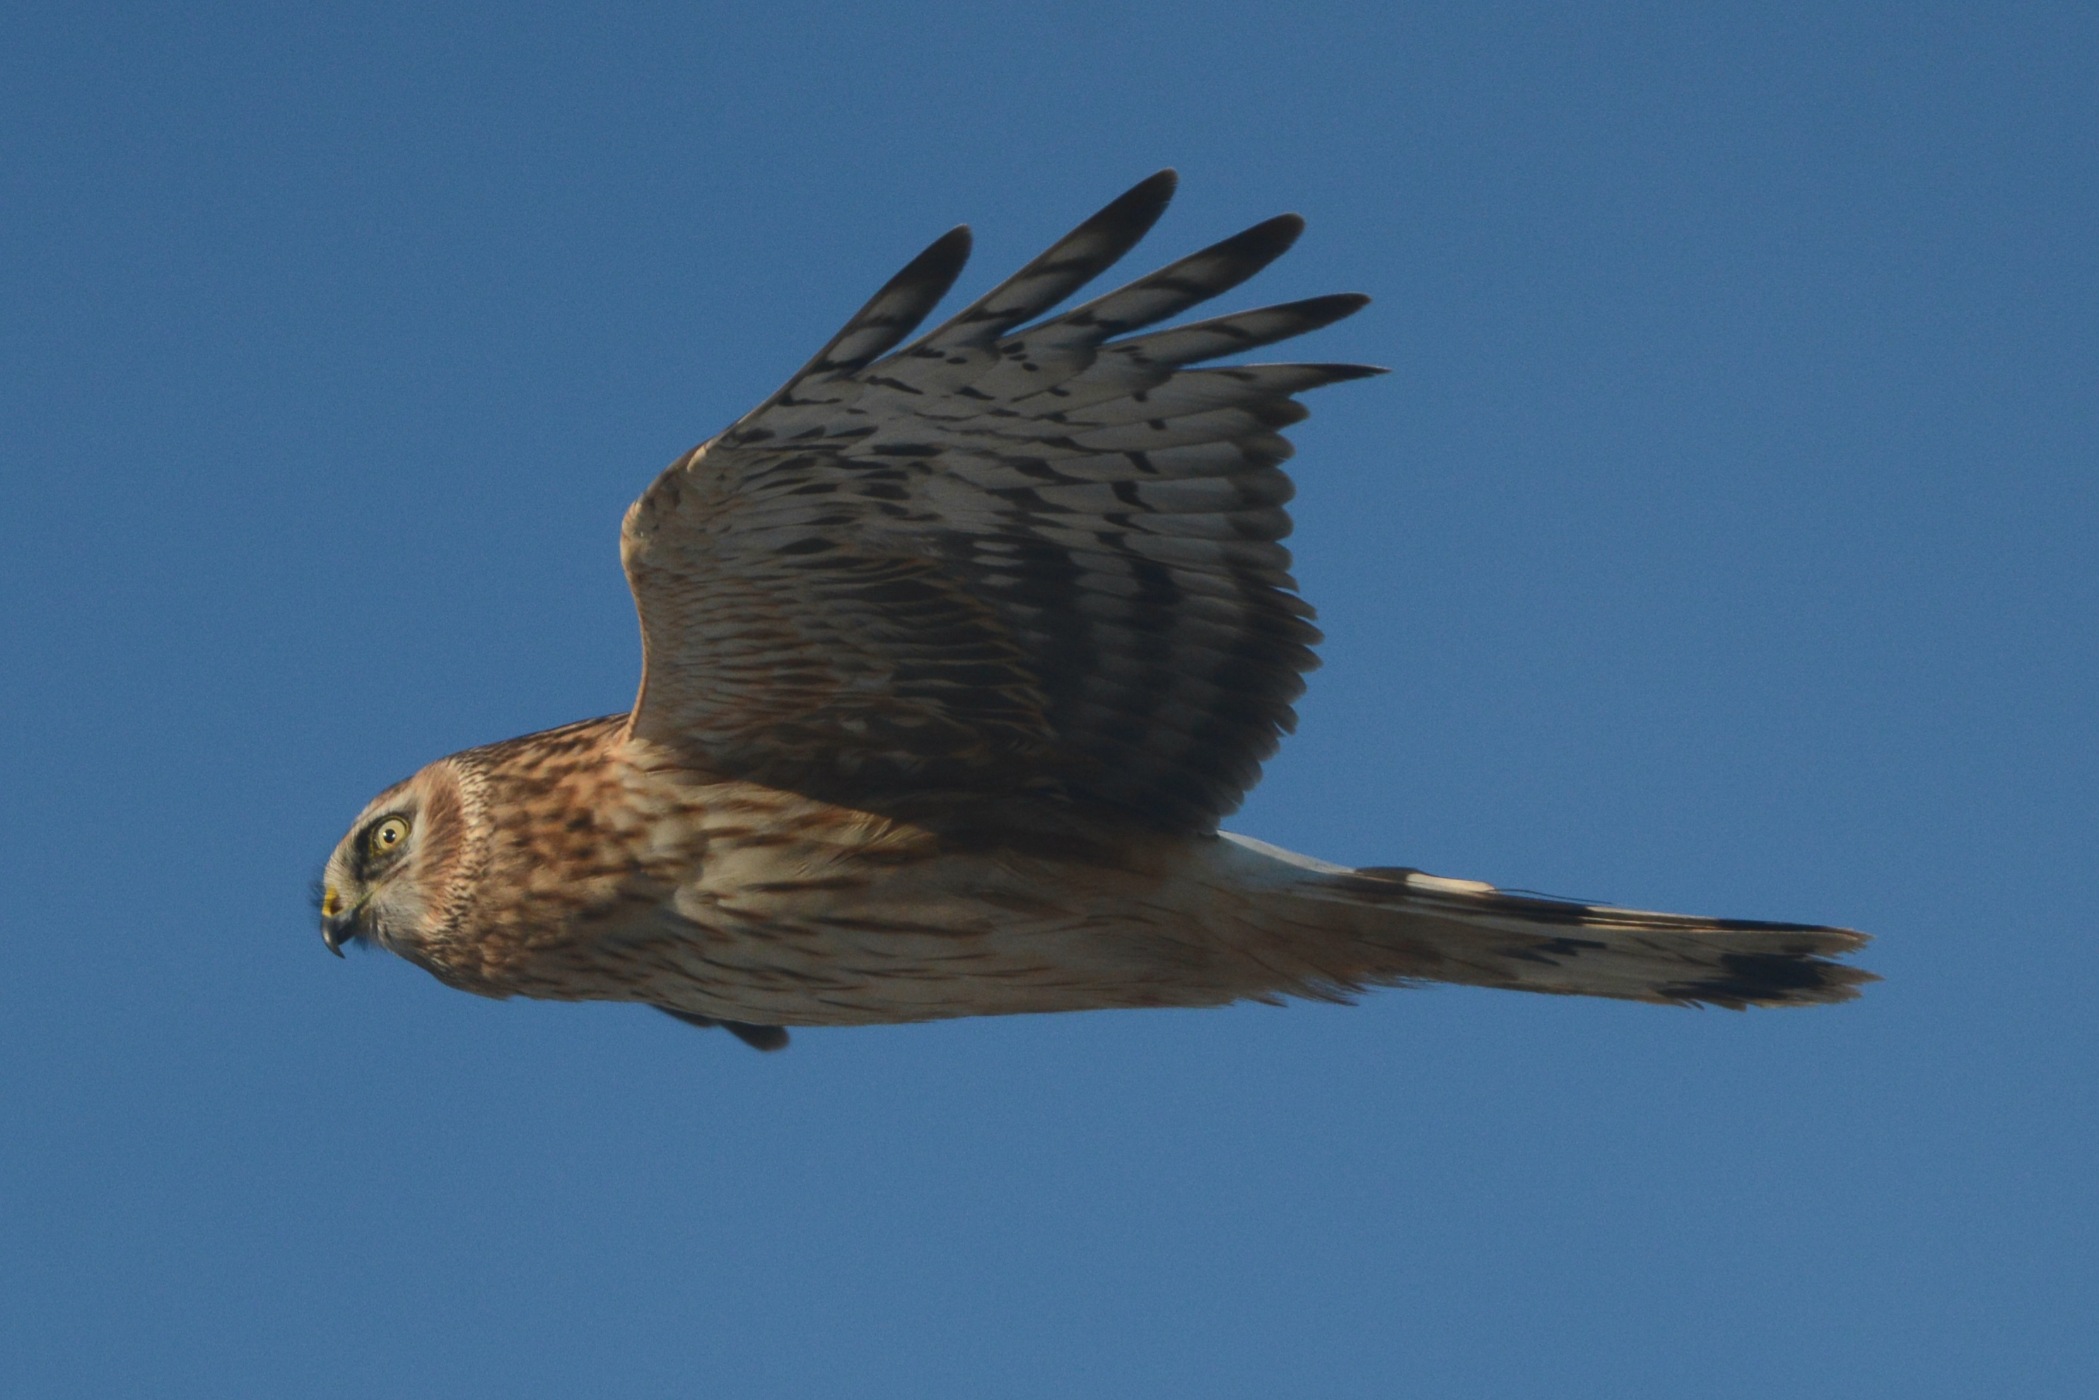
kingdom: Animalia
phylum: Chordata
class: Aves
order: Accipitriformes
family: Accipitridae
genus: Circus
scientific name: Circus cyaneus
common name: Blå kærhøg
